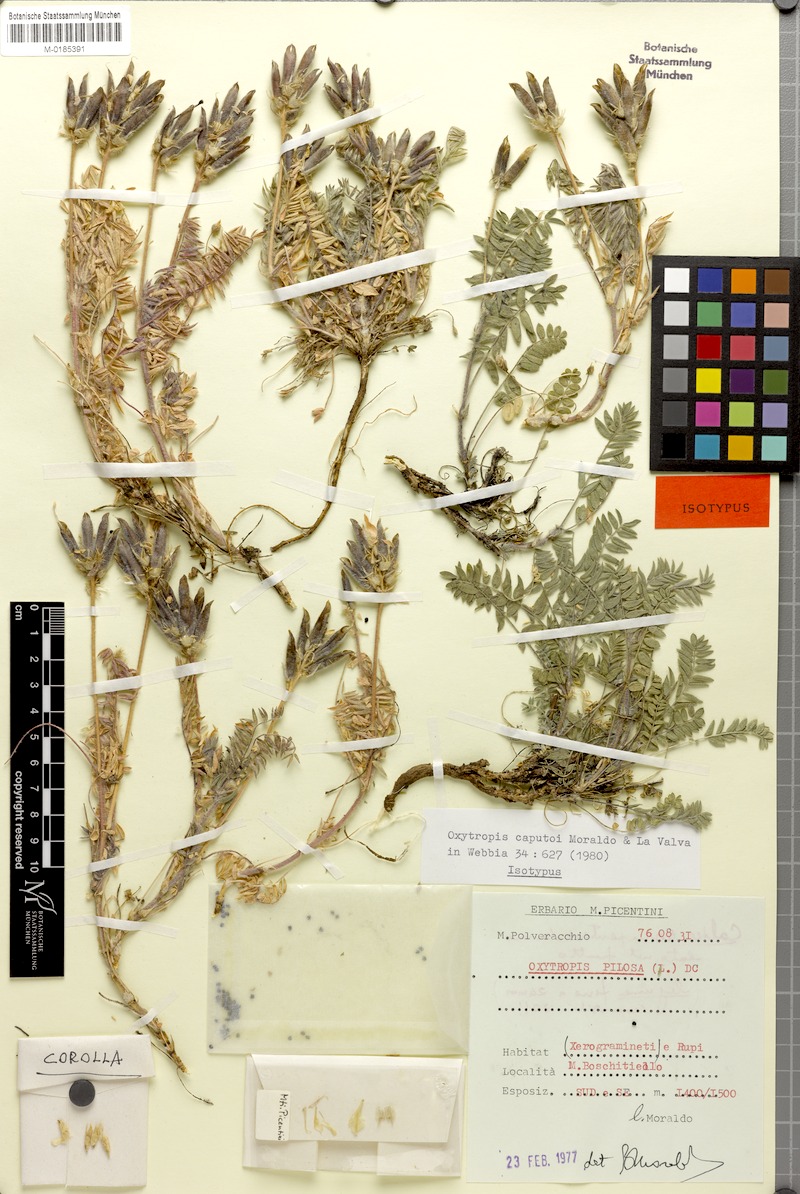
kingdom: Plantae
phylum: Tracheophyta
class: Magnoliopsida
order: Fabales
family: Fabaceae
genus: Oxytropis
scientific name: Oxytropis pilosa
